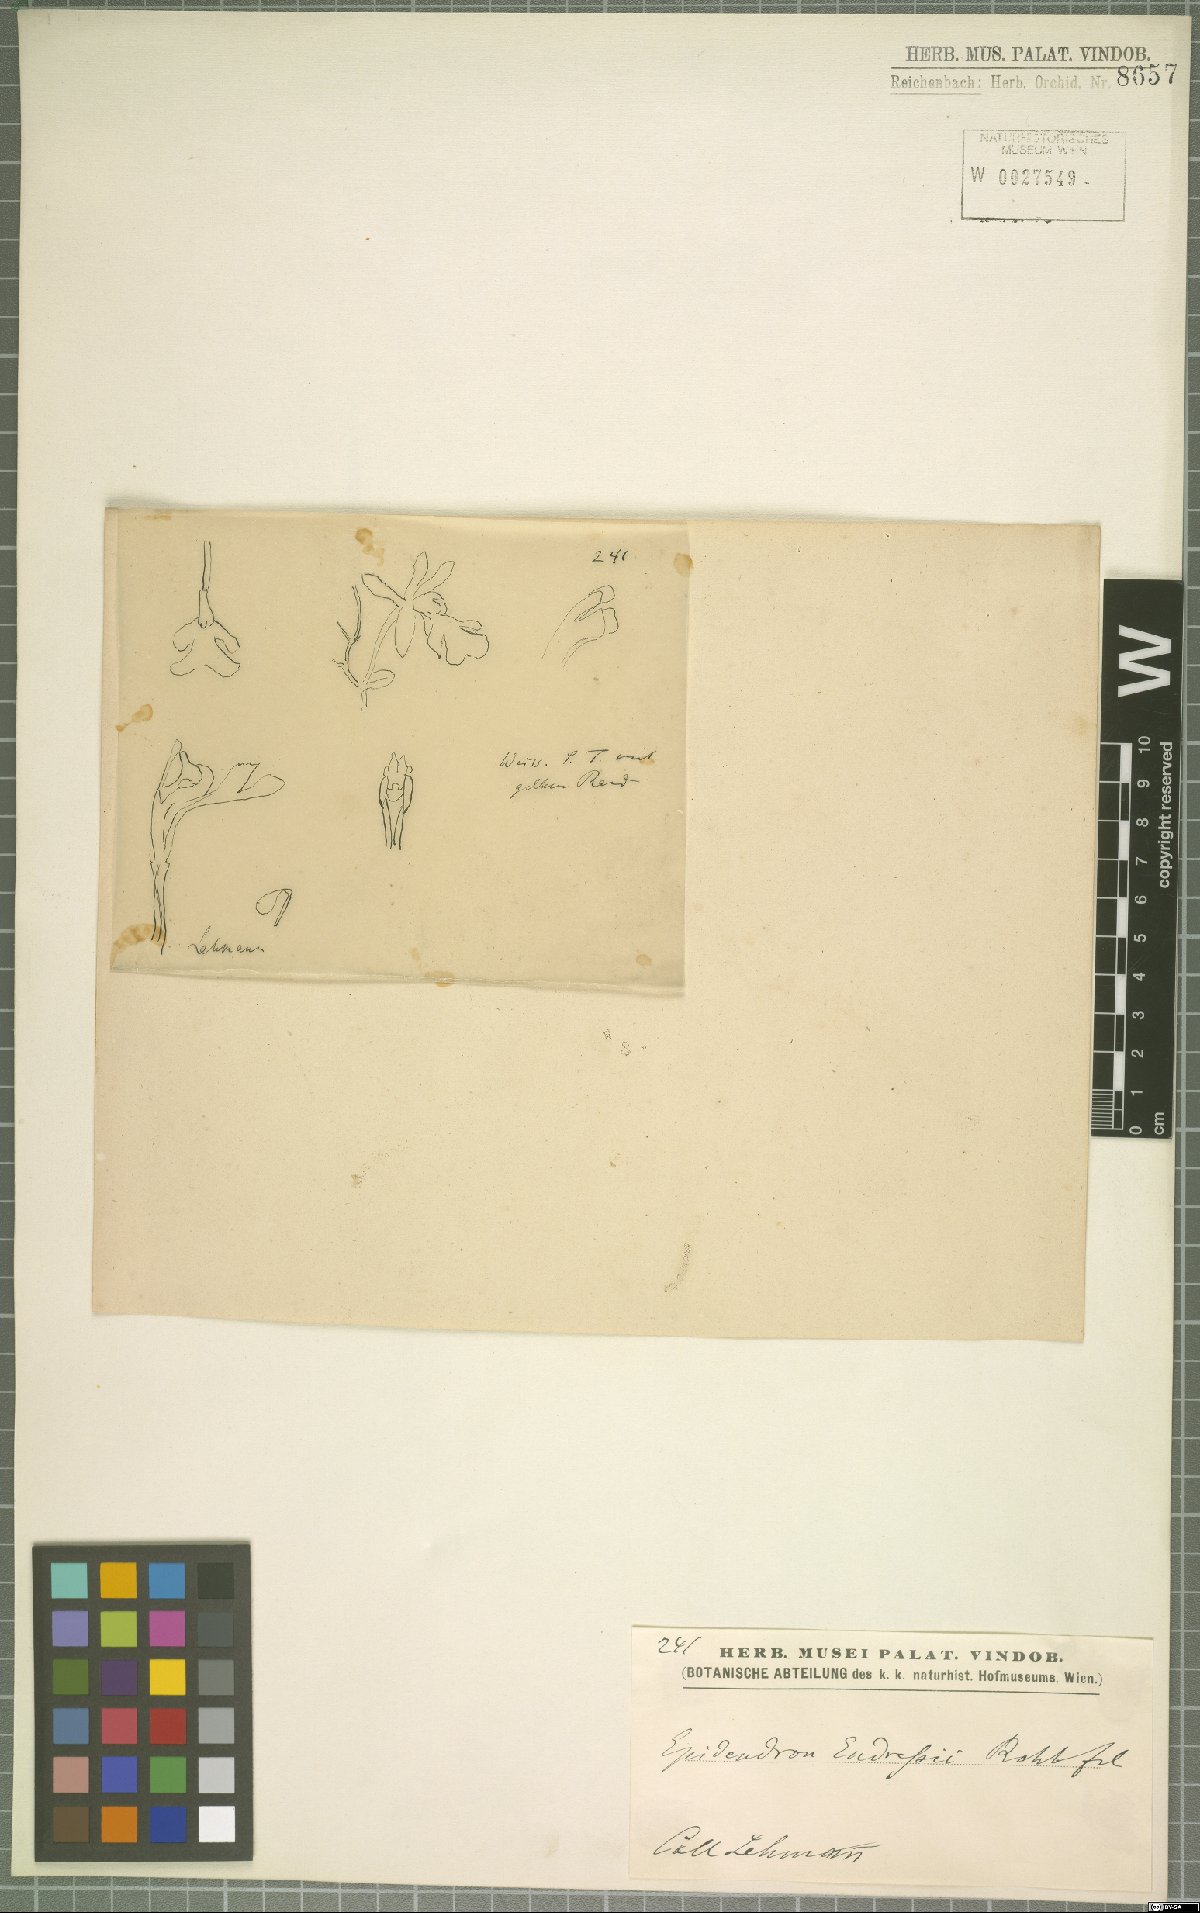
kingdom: Plantae
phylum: Tracheophyta
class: Liliopsida
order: Asparagales
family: Orchidaceae
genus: Epidendrum
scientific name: Epidendrum endresii
